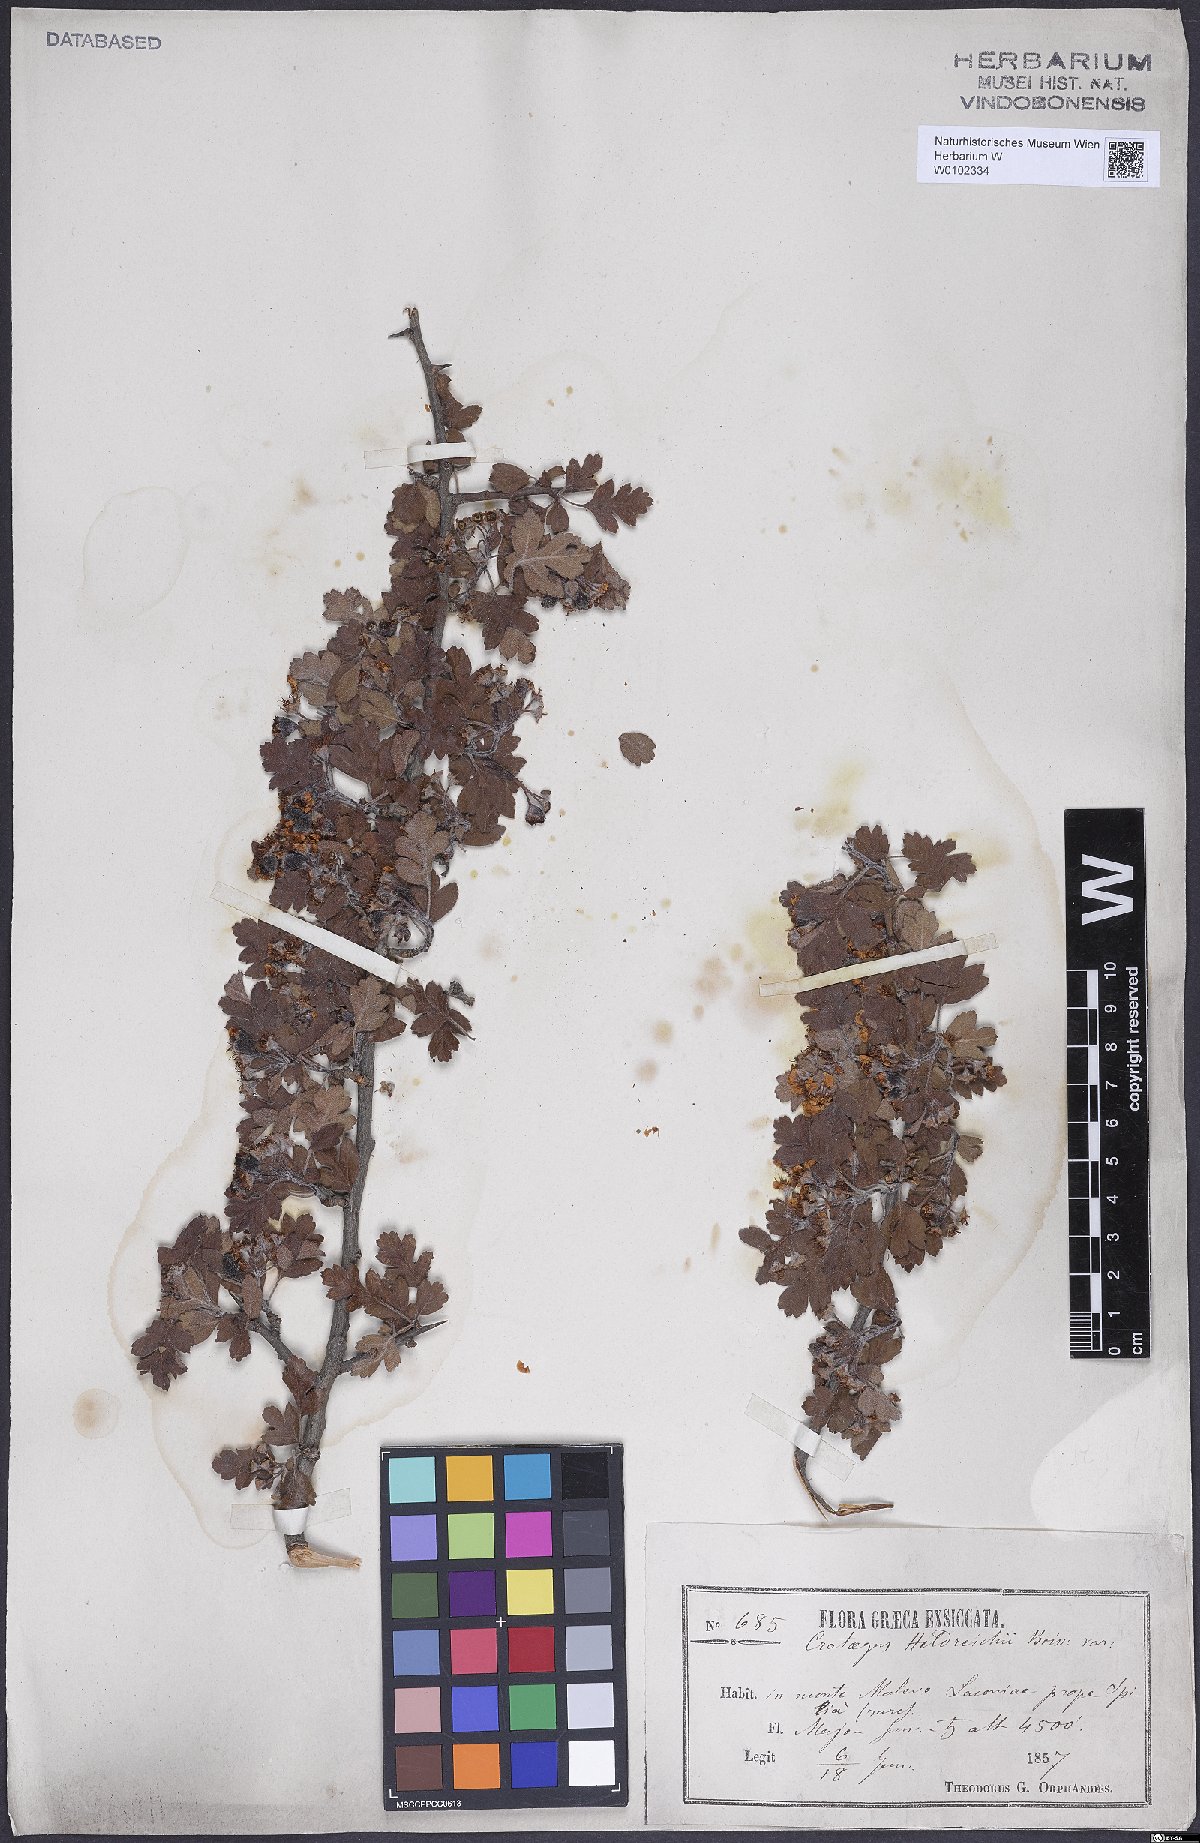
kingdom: Plantae
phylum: Tracheophyta
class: Magnoliopsida
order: Rosales
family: Rosaceae
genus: Crataegus
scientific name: Crataegus heldreichii
